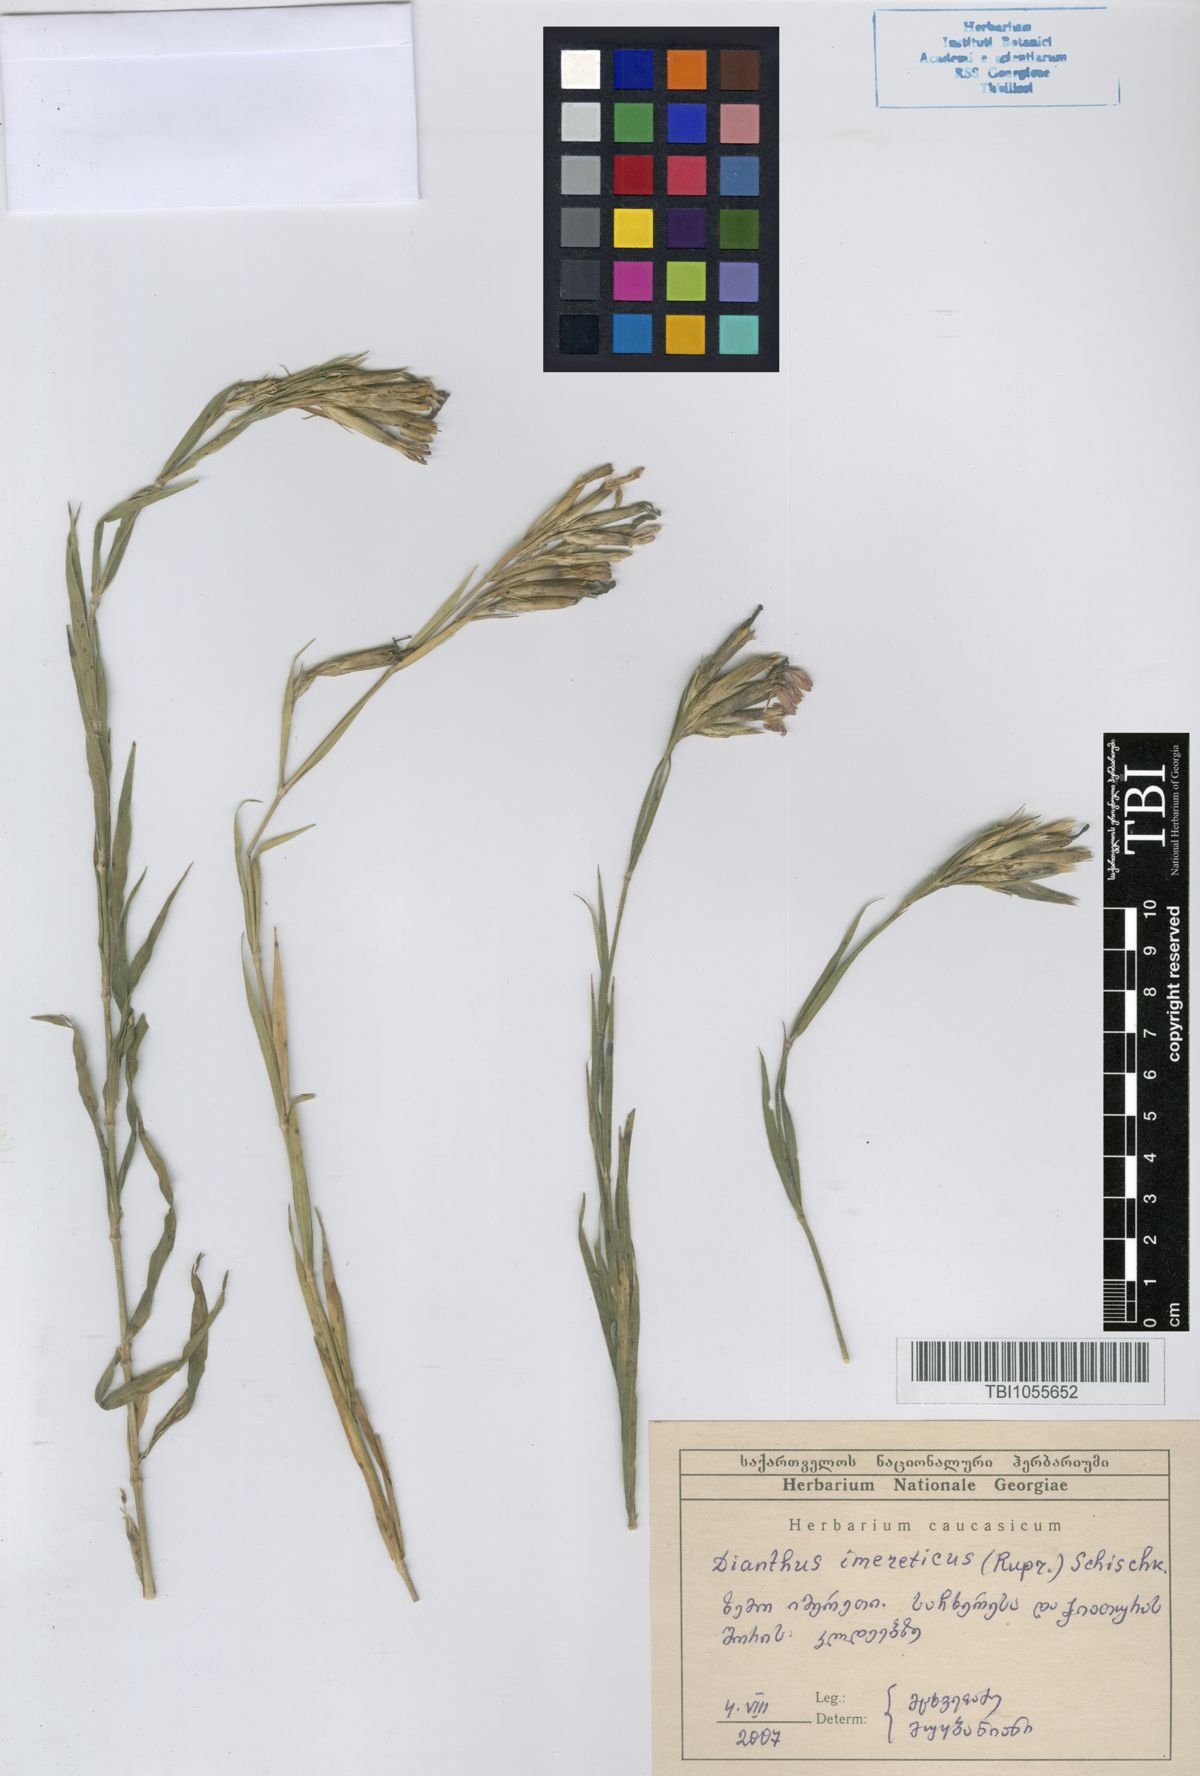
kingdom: Plantae
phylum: Tracheophyta
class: Magnoliopsida
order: Caryophyllales
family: Caryophyllaceae
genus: Dianthus
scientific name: Dianthus imereticus
